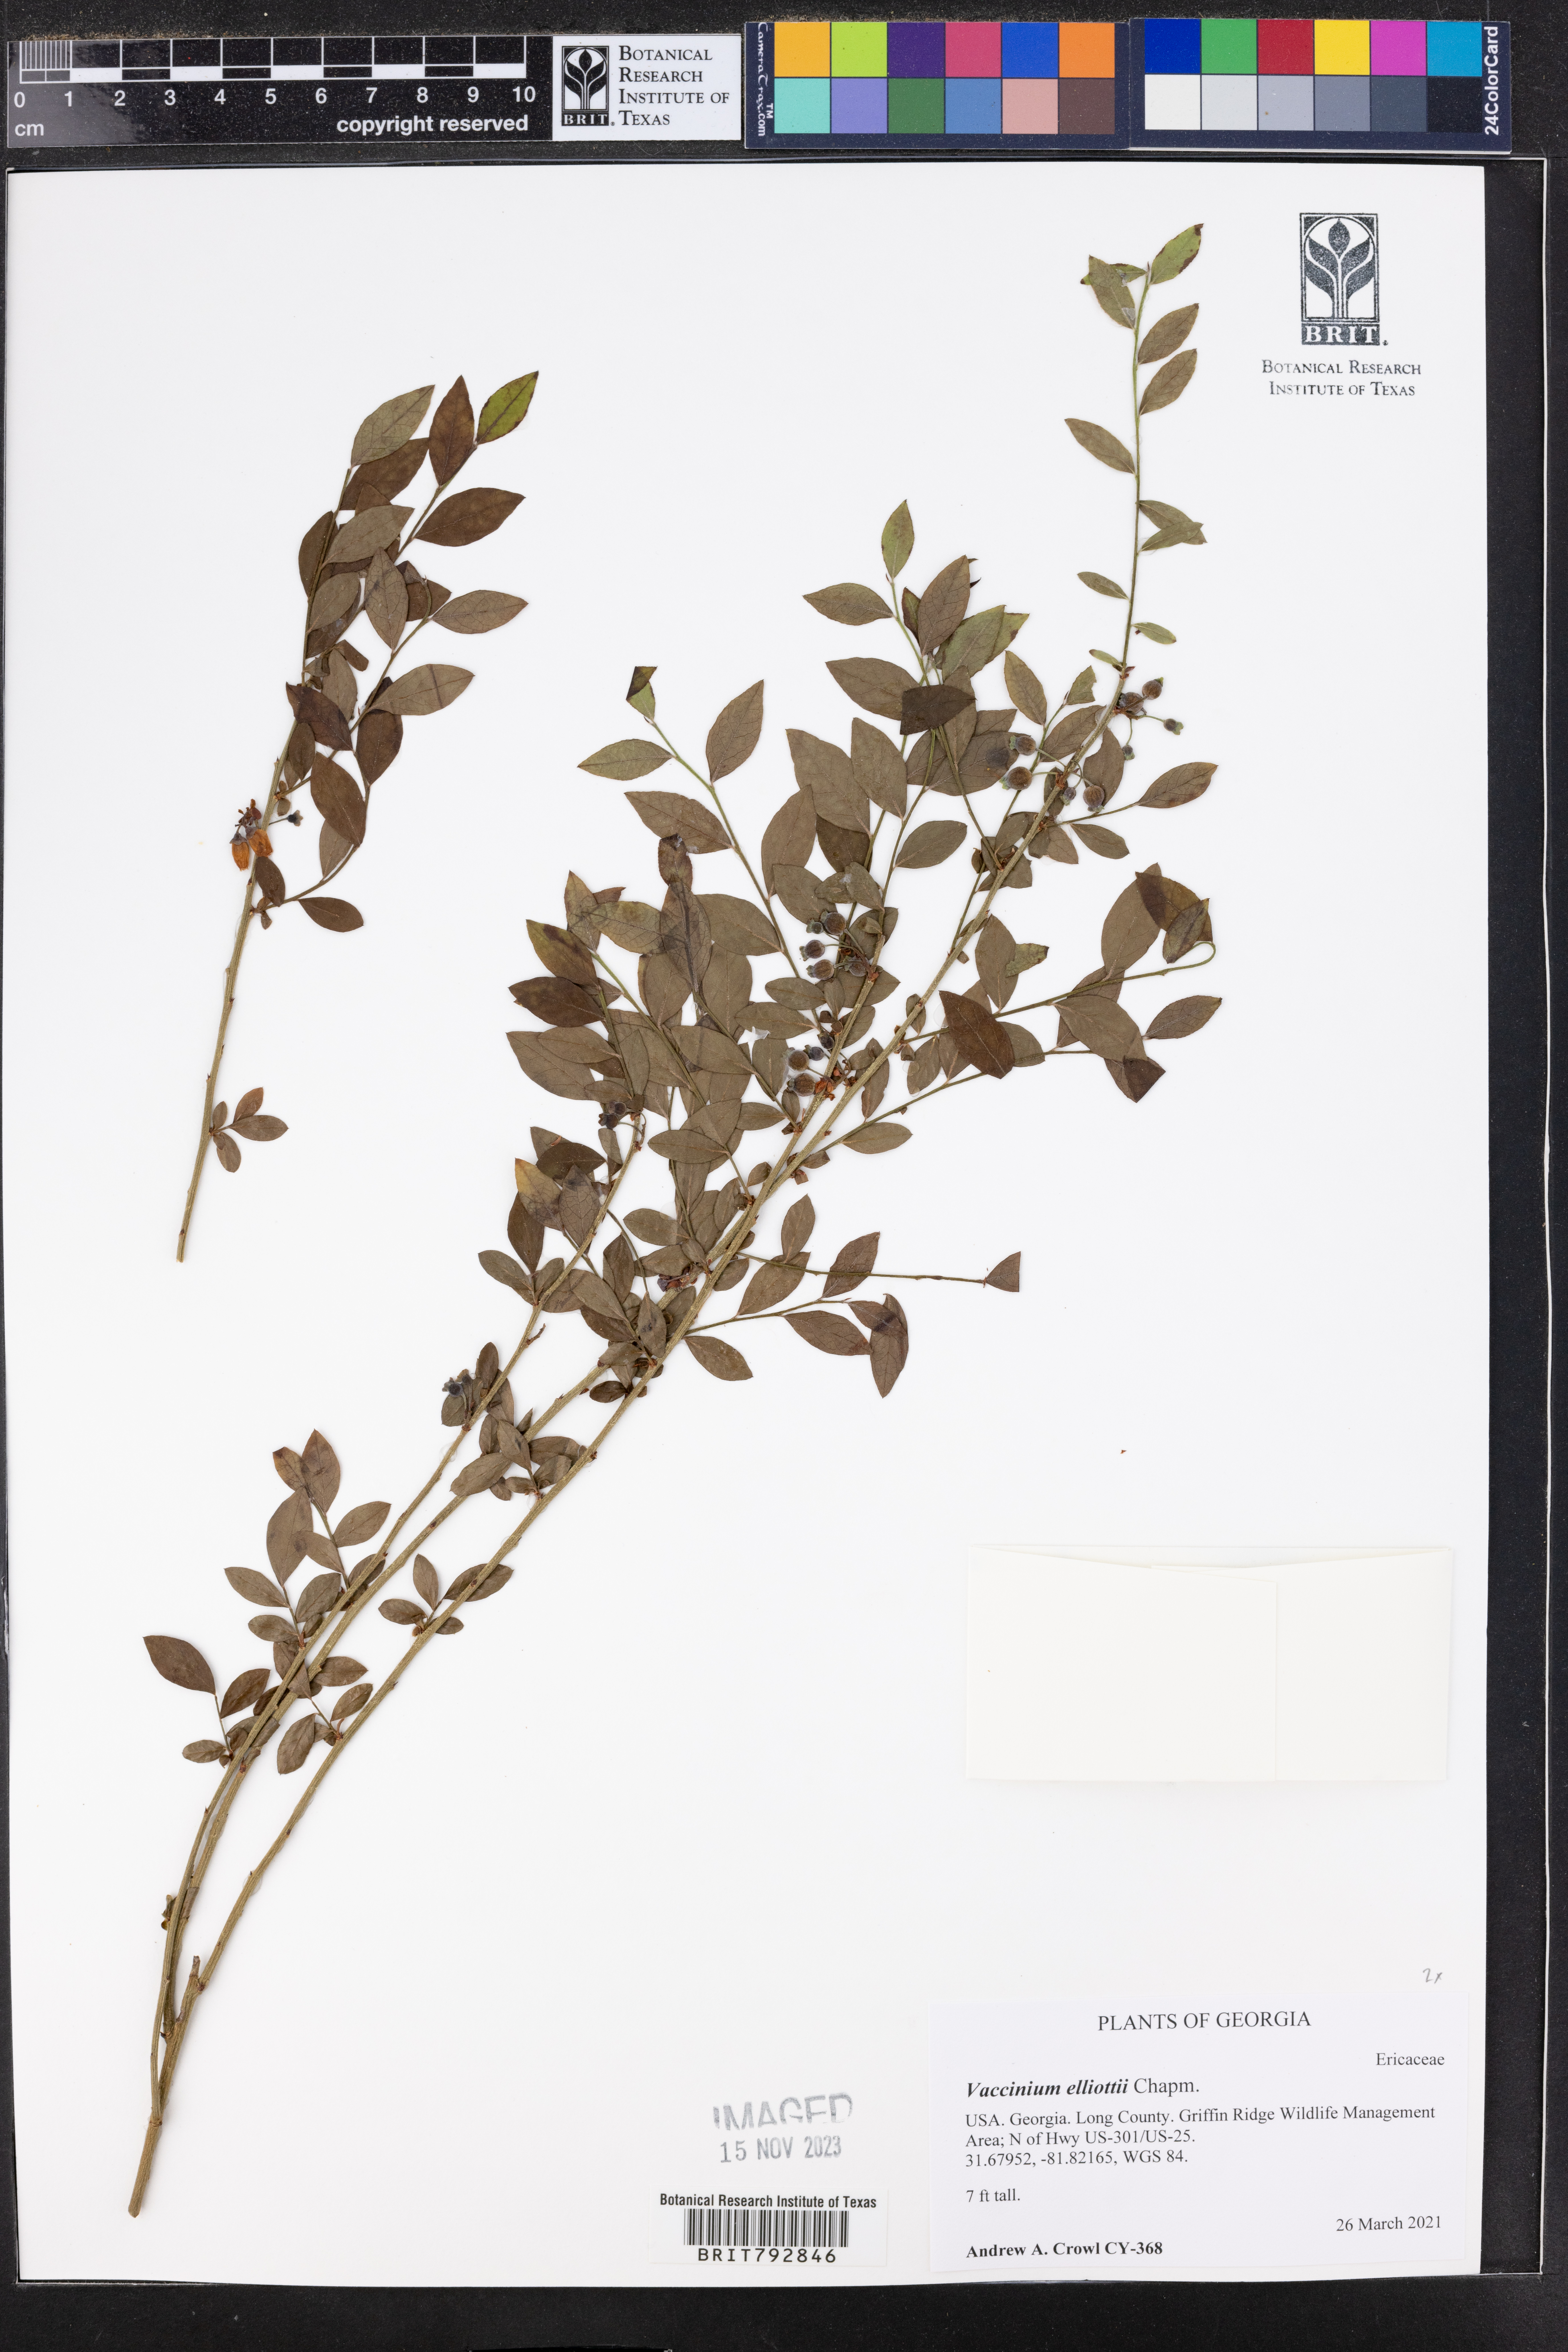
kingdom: Plantae
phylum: Tracheophyta
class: Magnoliopsida
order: Ericales
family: Ericaceae
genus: Vaccinium
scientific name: Vaccinium corymbosum
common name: Blueberry
